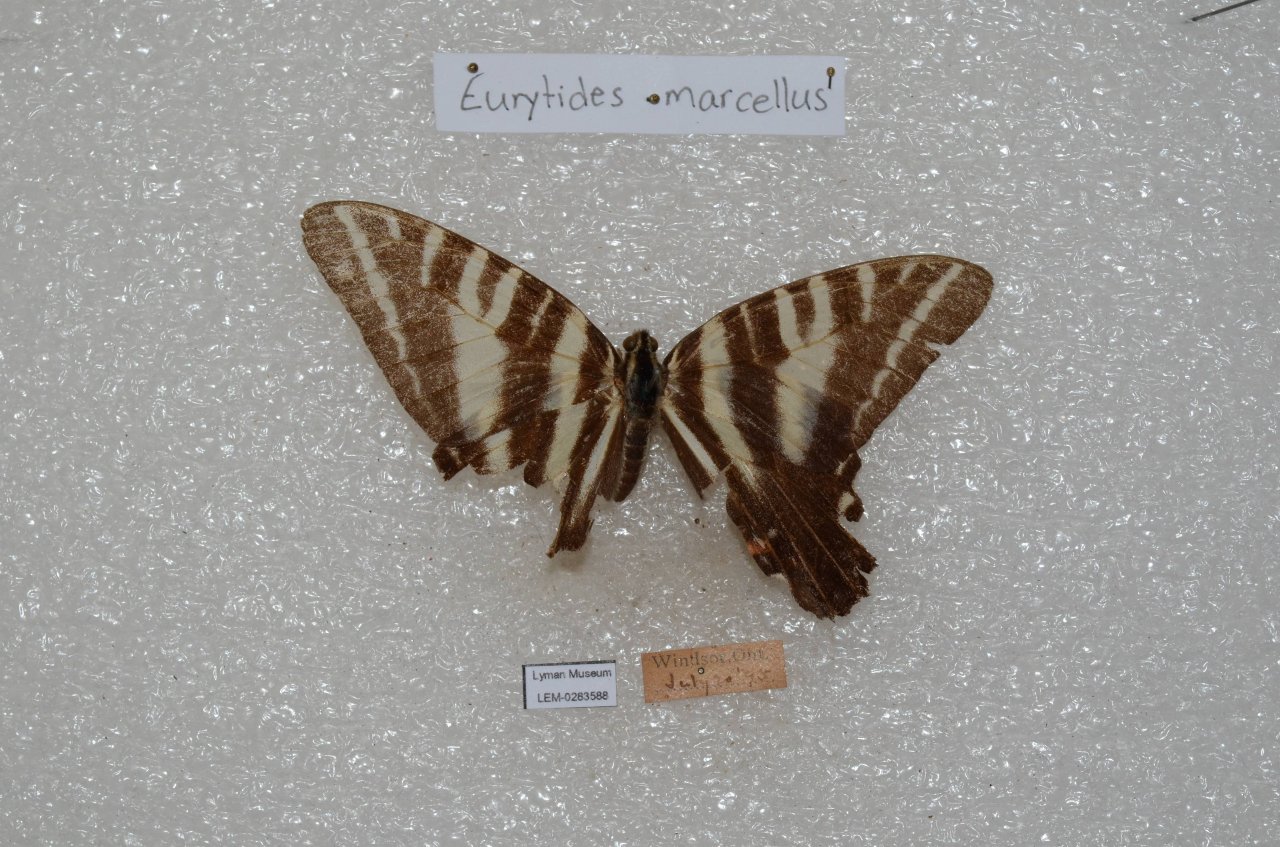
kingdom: Animalia
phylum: Arthropoda
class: Insecta
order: Lepidoptera
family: Papilionidae
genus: Protographium
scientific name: Protographium marcellus
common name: Zebra Swallowtail
